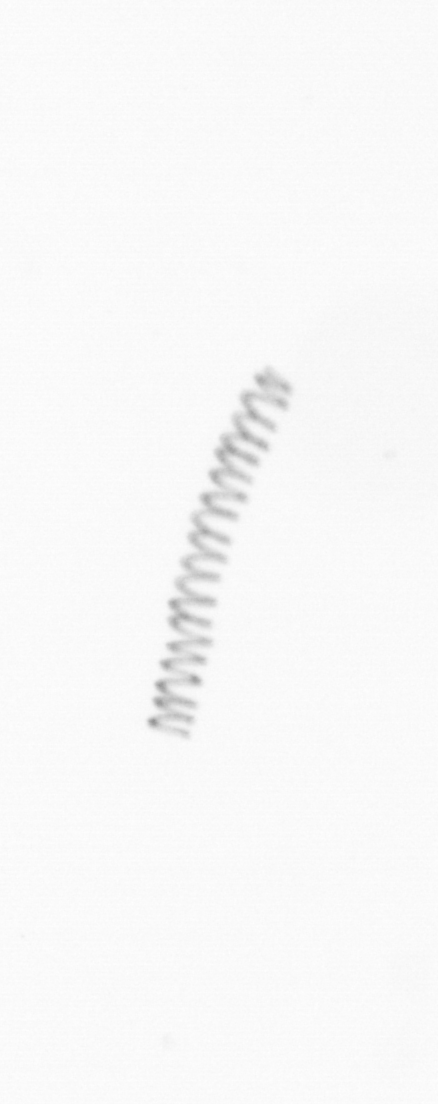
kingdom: Chromista
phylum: Ochrophyta
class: Bacillariophyceae
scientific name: Bacillariophyceae
